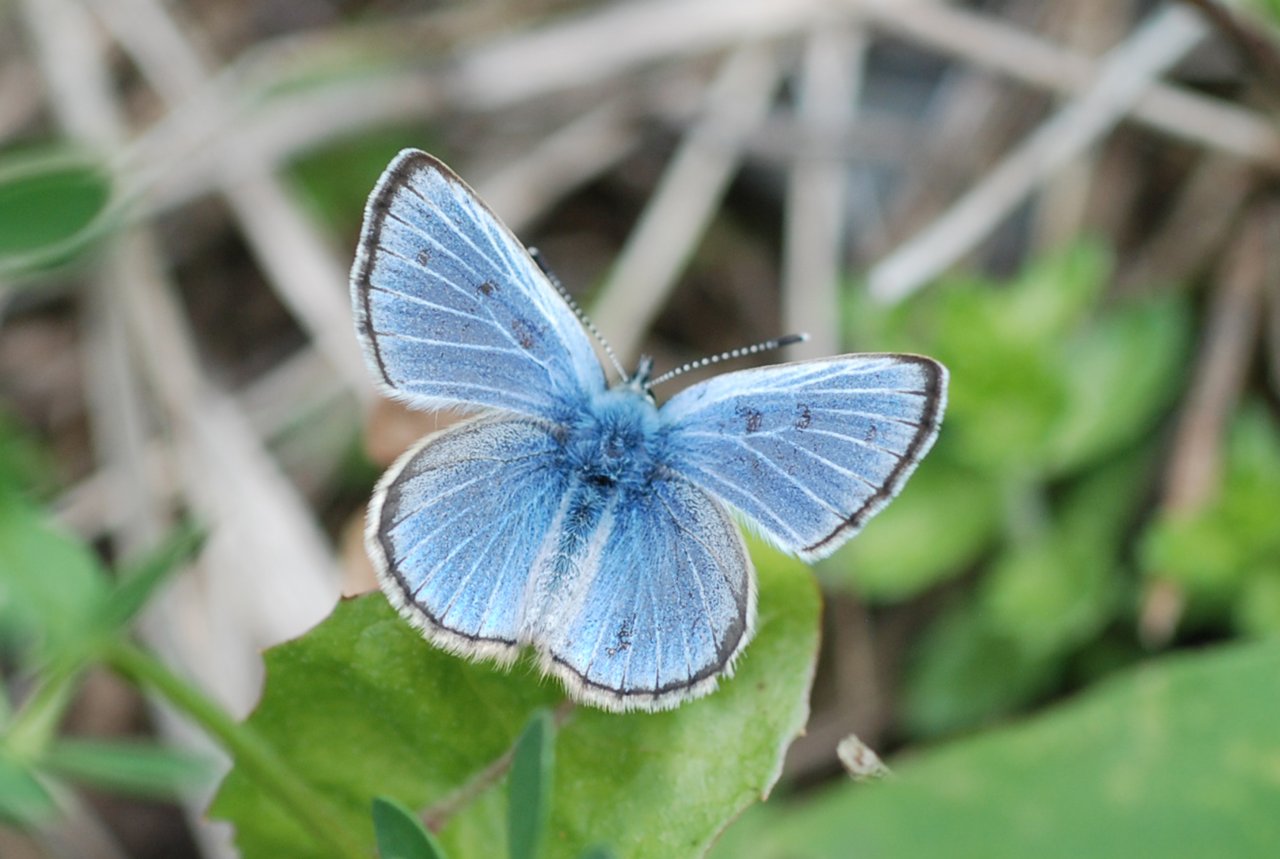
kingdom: Animalia
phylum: Arthropoda
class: Insecta
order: Lepidoptera
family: Lycaenidae
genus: Glaucopsyche
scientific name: Glaucopsyche lygdamus
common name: Silvery Blue
